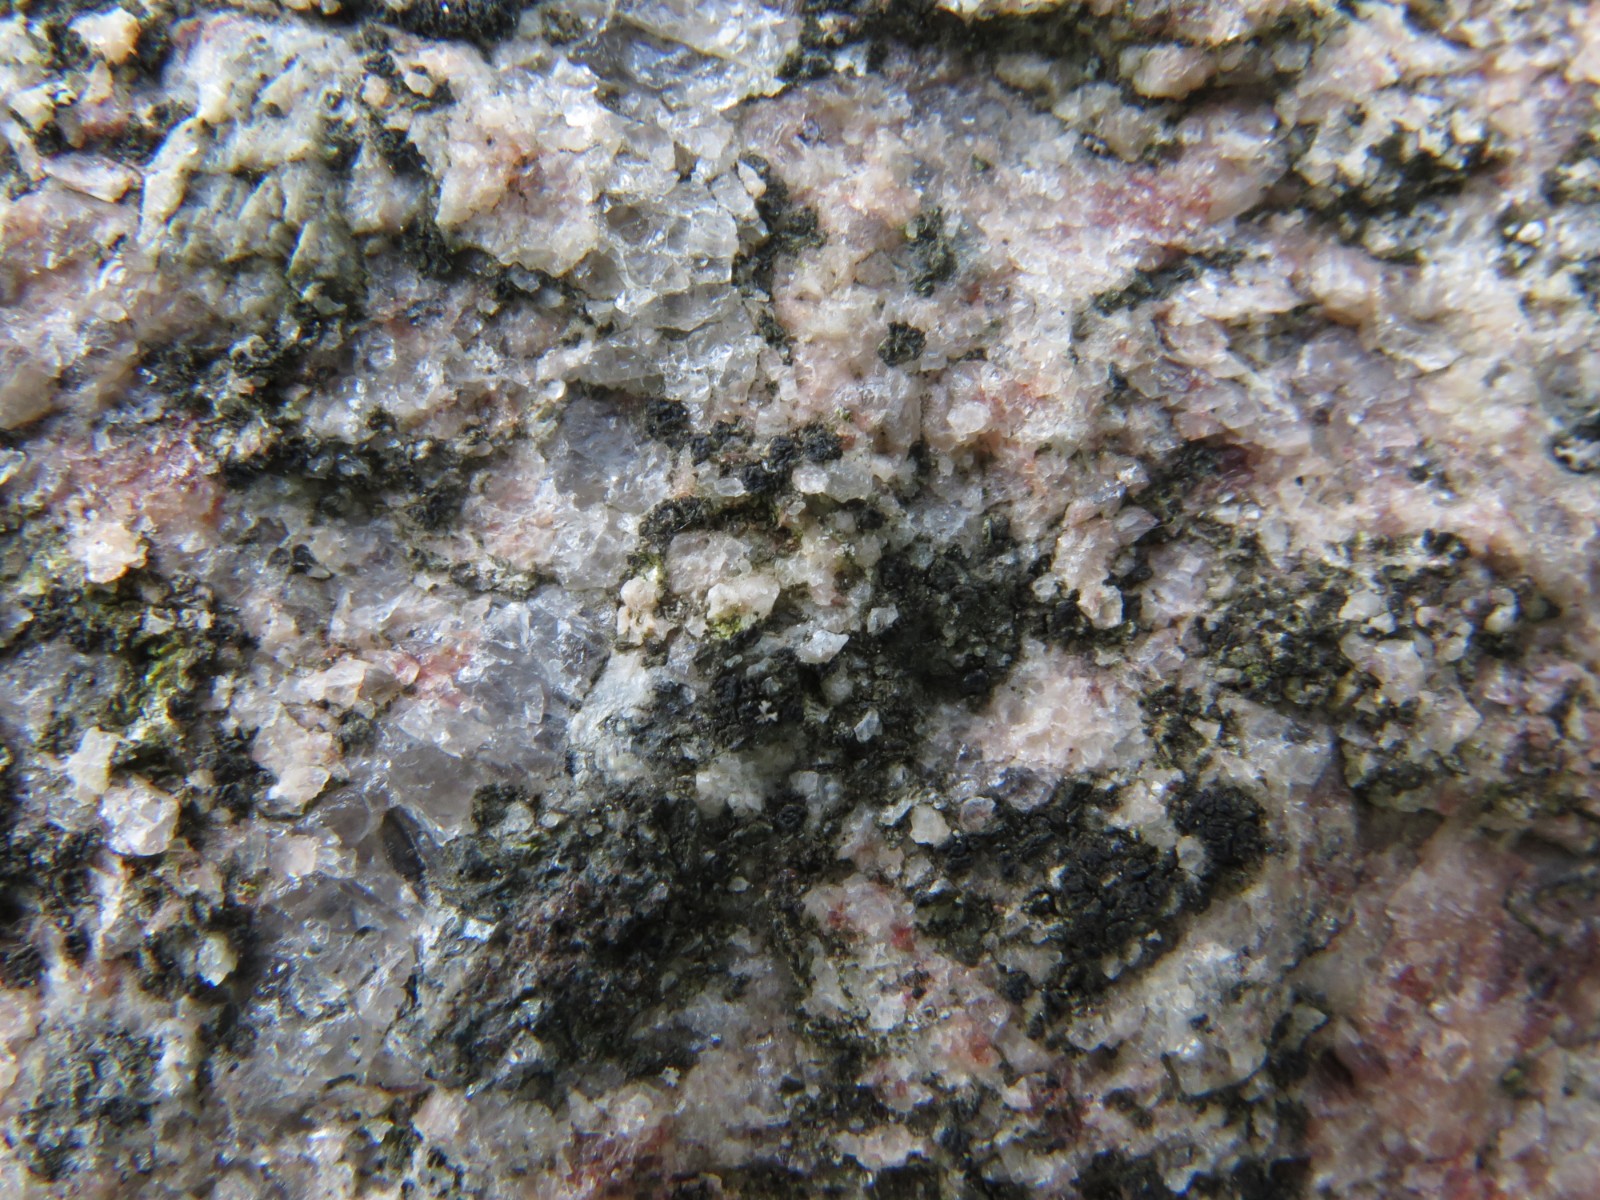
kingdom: Fungi
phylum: Ascomycota
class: Lecanoromycetes
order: Acarosporales
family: Acarosporaceae
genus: Acarospora
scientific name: Acarospora privigna
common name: sort foldekantlav
